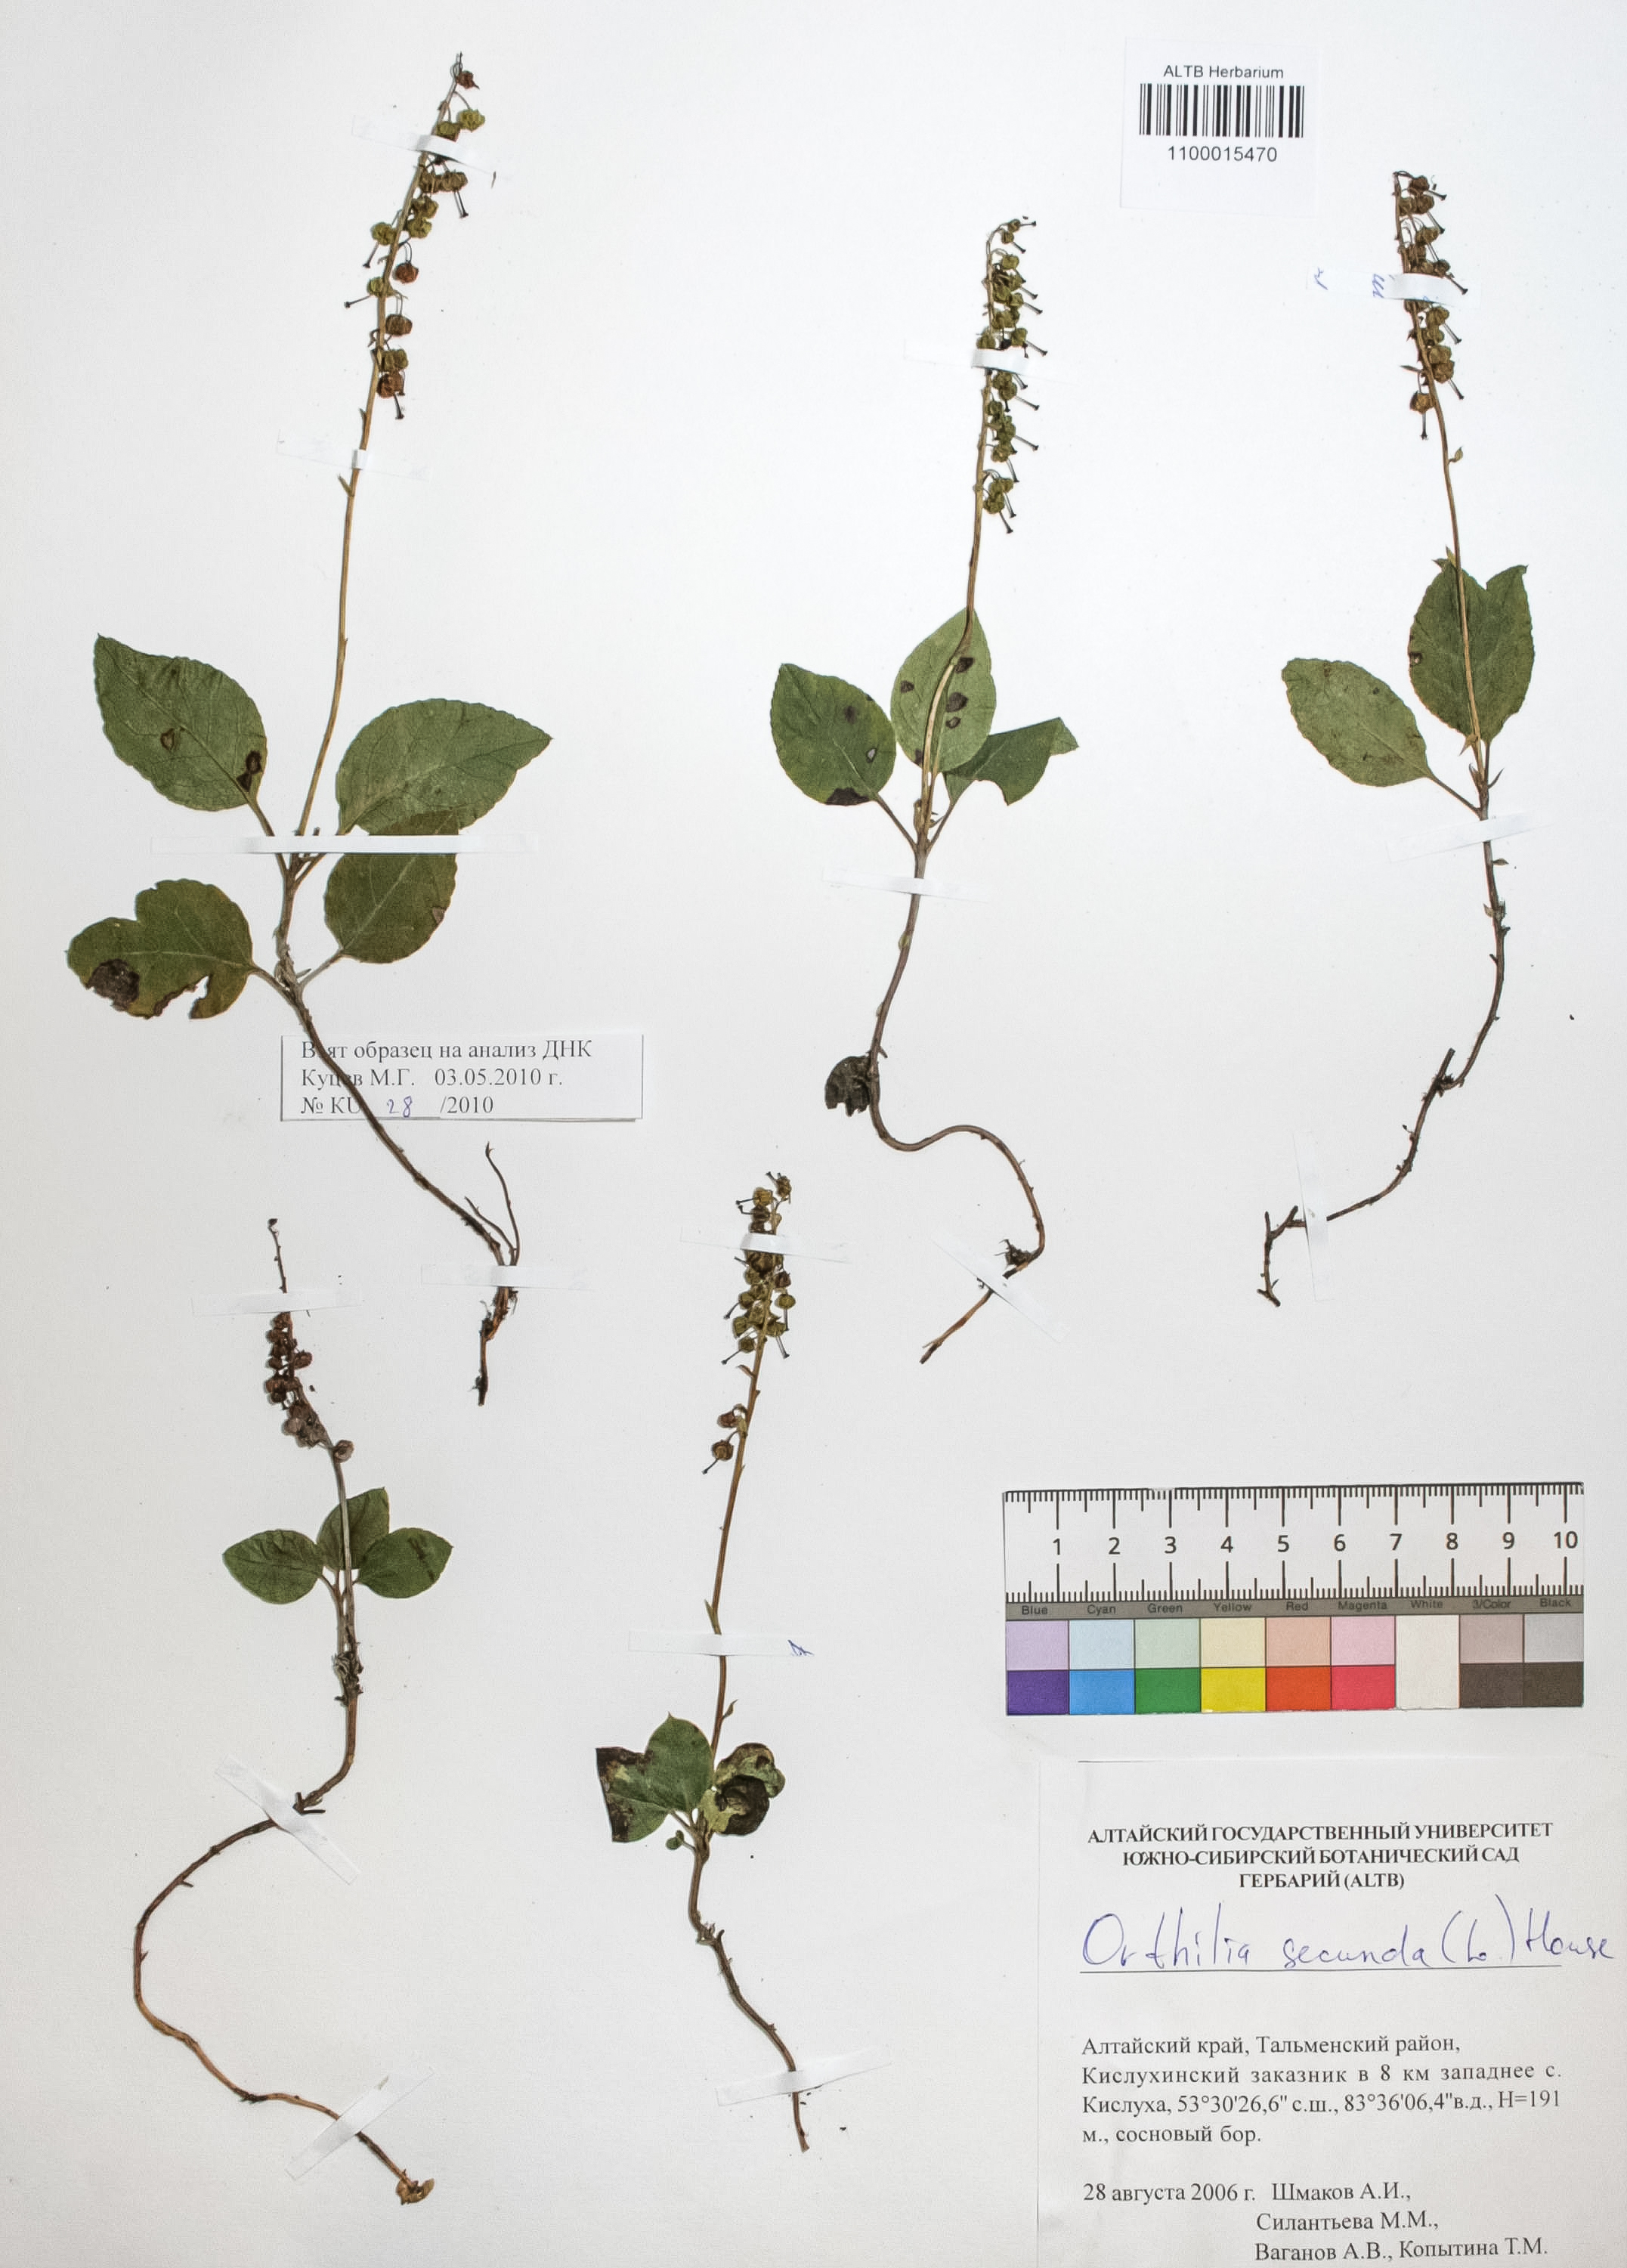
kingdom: Plantae
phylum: Tracheophyta
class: Magnoliopsida
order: Ericales
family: Ericaceae
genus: Orthilia
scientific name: Orthilia secunda
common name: One-sided orthilia
